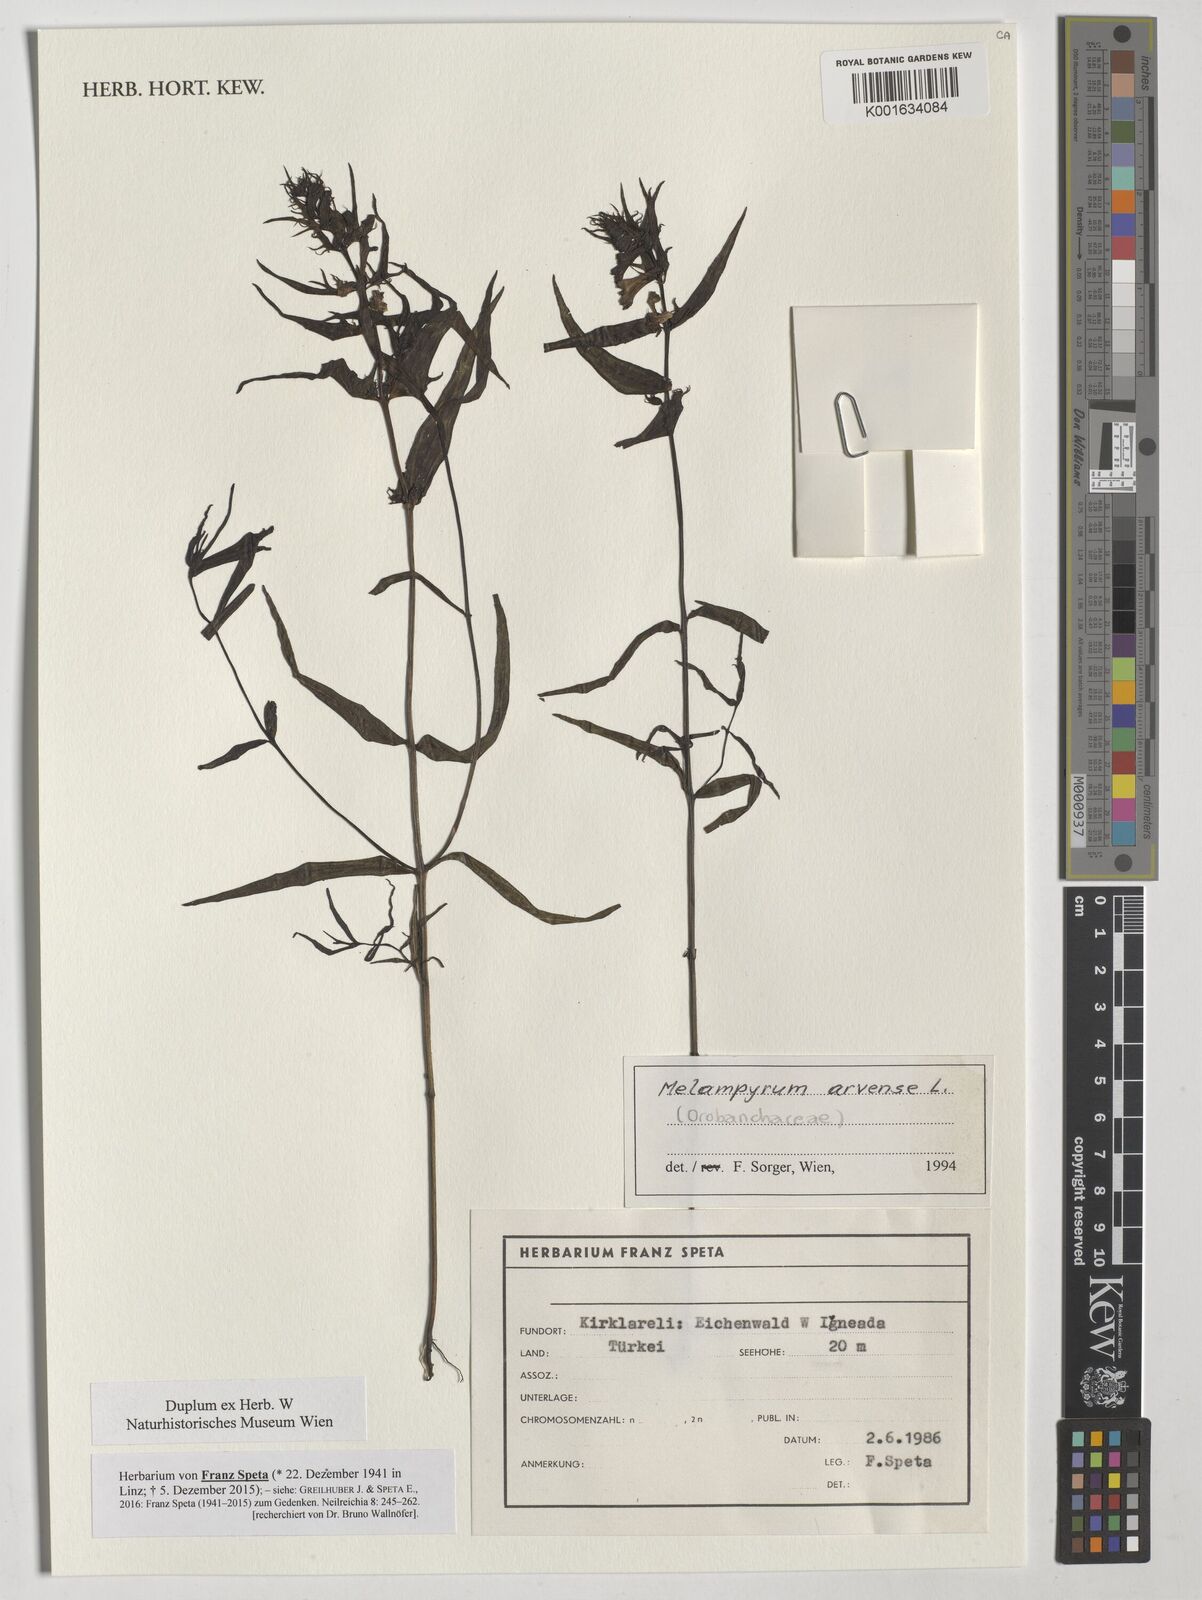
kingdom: Plantae
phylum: Tracheophyta
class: Magnoliopsida
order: Lamiales
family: Orobanchaceae
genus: Melampyrum
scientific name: Melampyrum arvense
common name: Field cow-wheat
